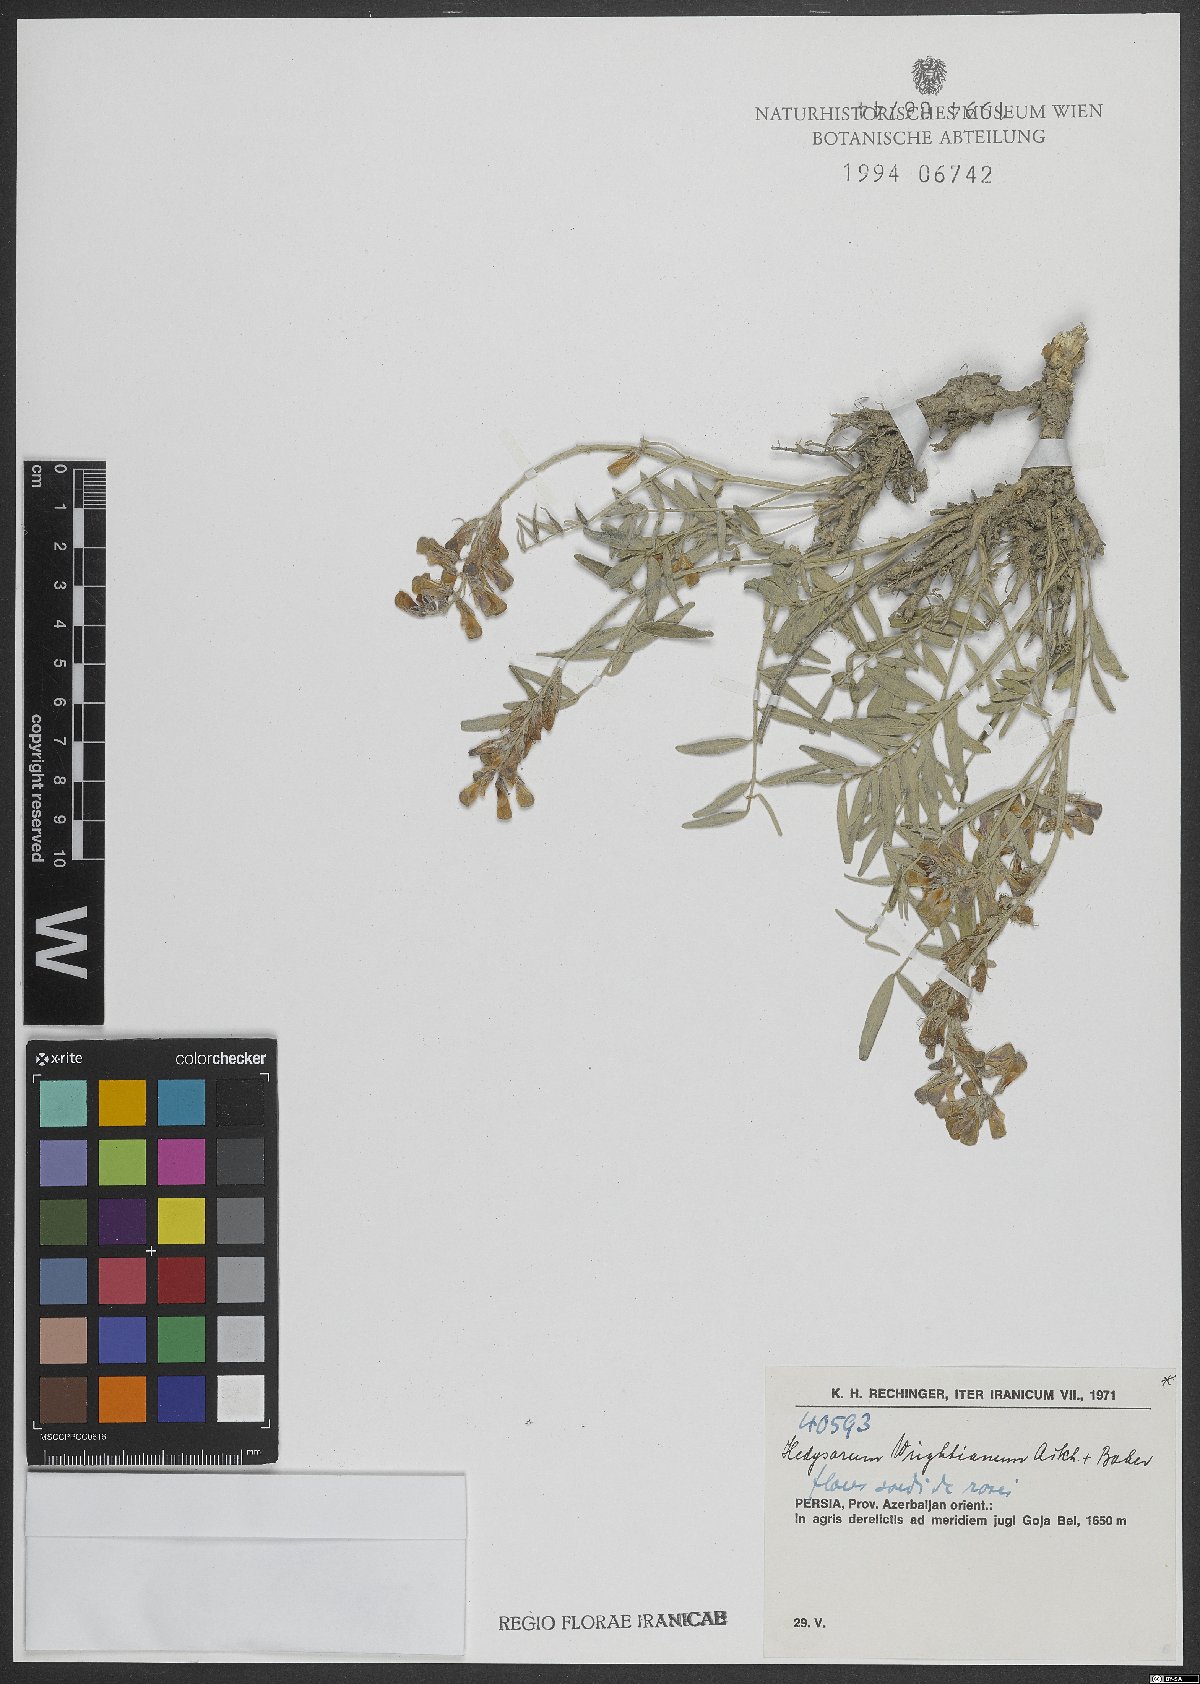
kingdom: Plantae
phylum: Tracheophyta
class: Magnoliopsida
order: Fabales
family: Fabaceae
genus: Hedysarum
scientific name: Hedysarum micropterum
